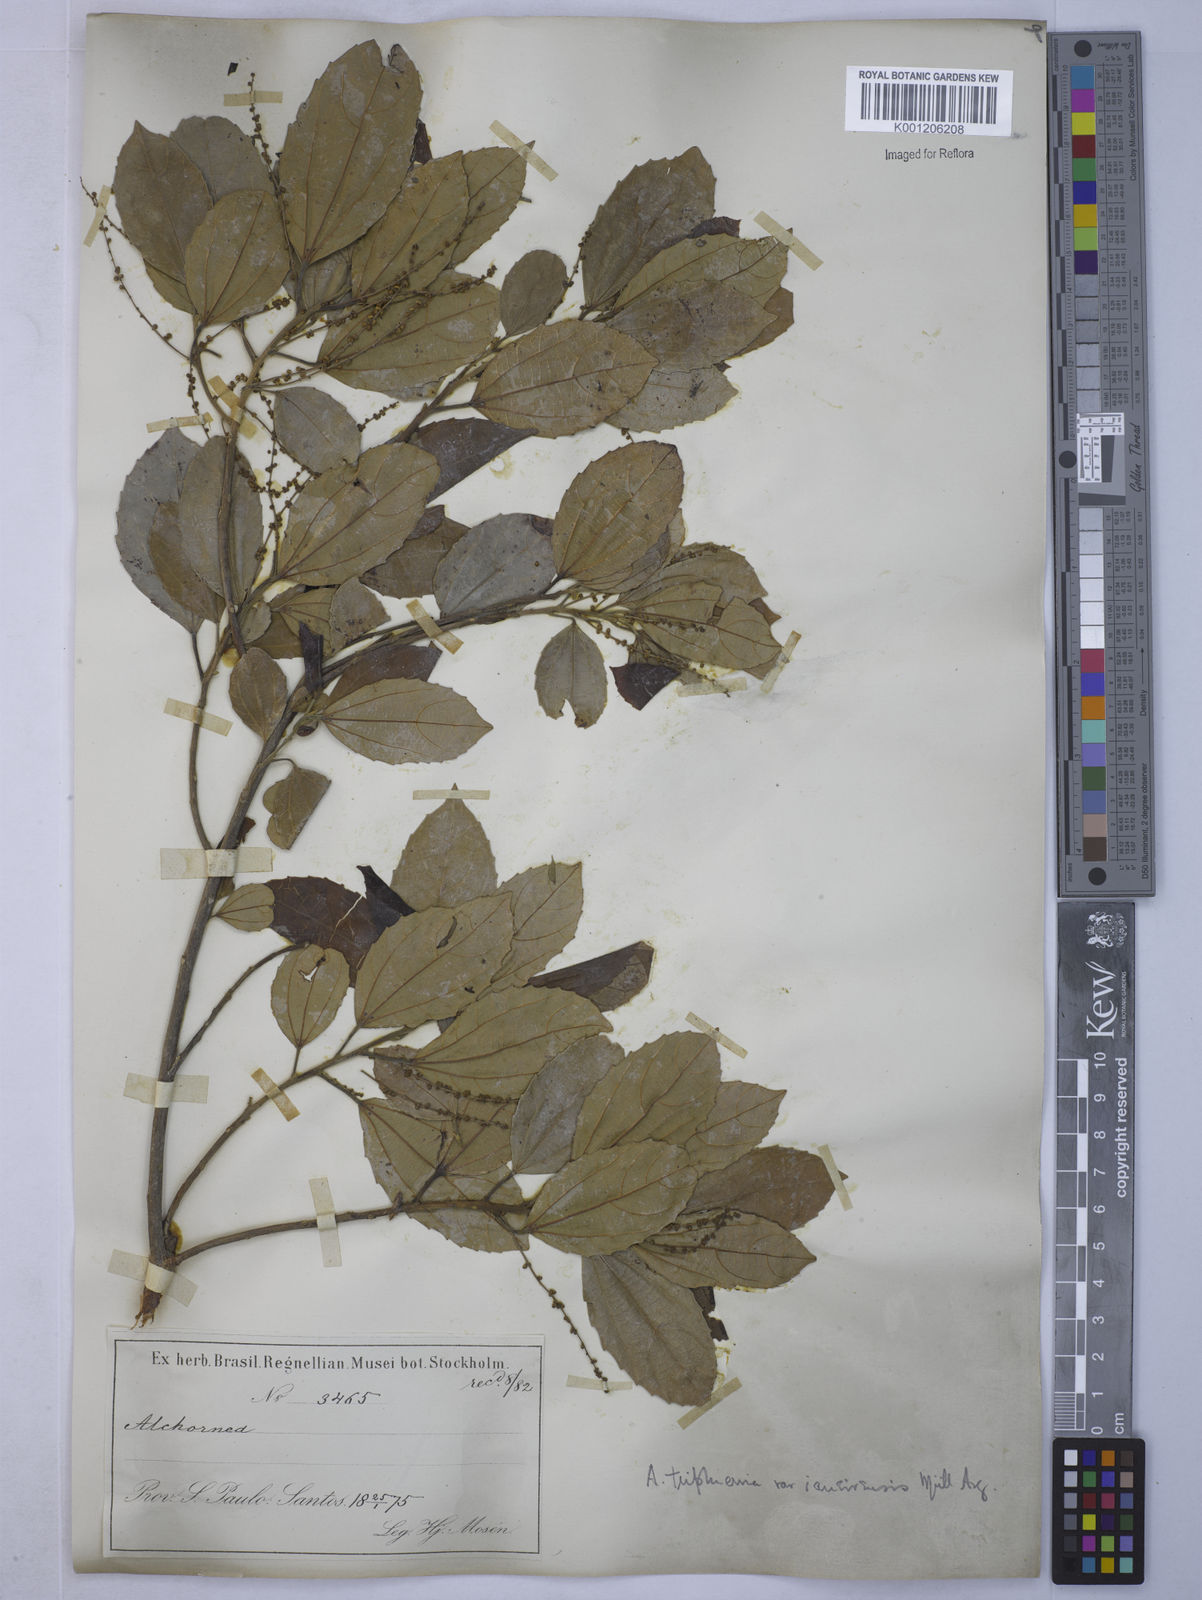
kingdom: Plantae
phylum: Tracheophyta
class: Magnoliopsida
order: Malpighiales
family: Euphorbiaceae
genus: Alchornea
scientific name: Alchornea
